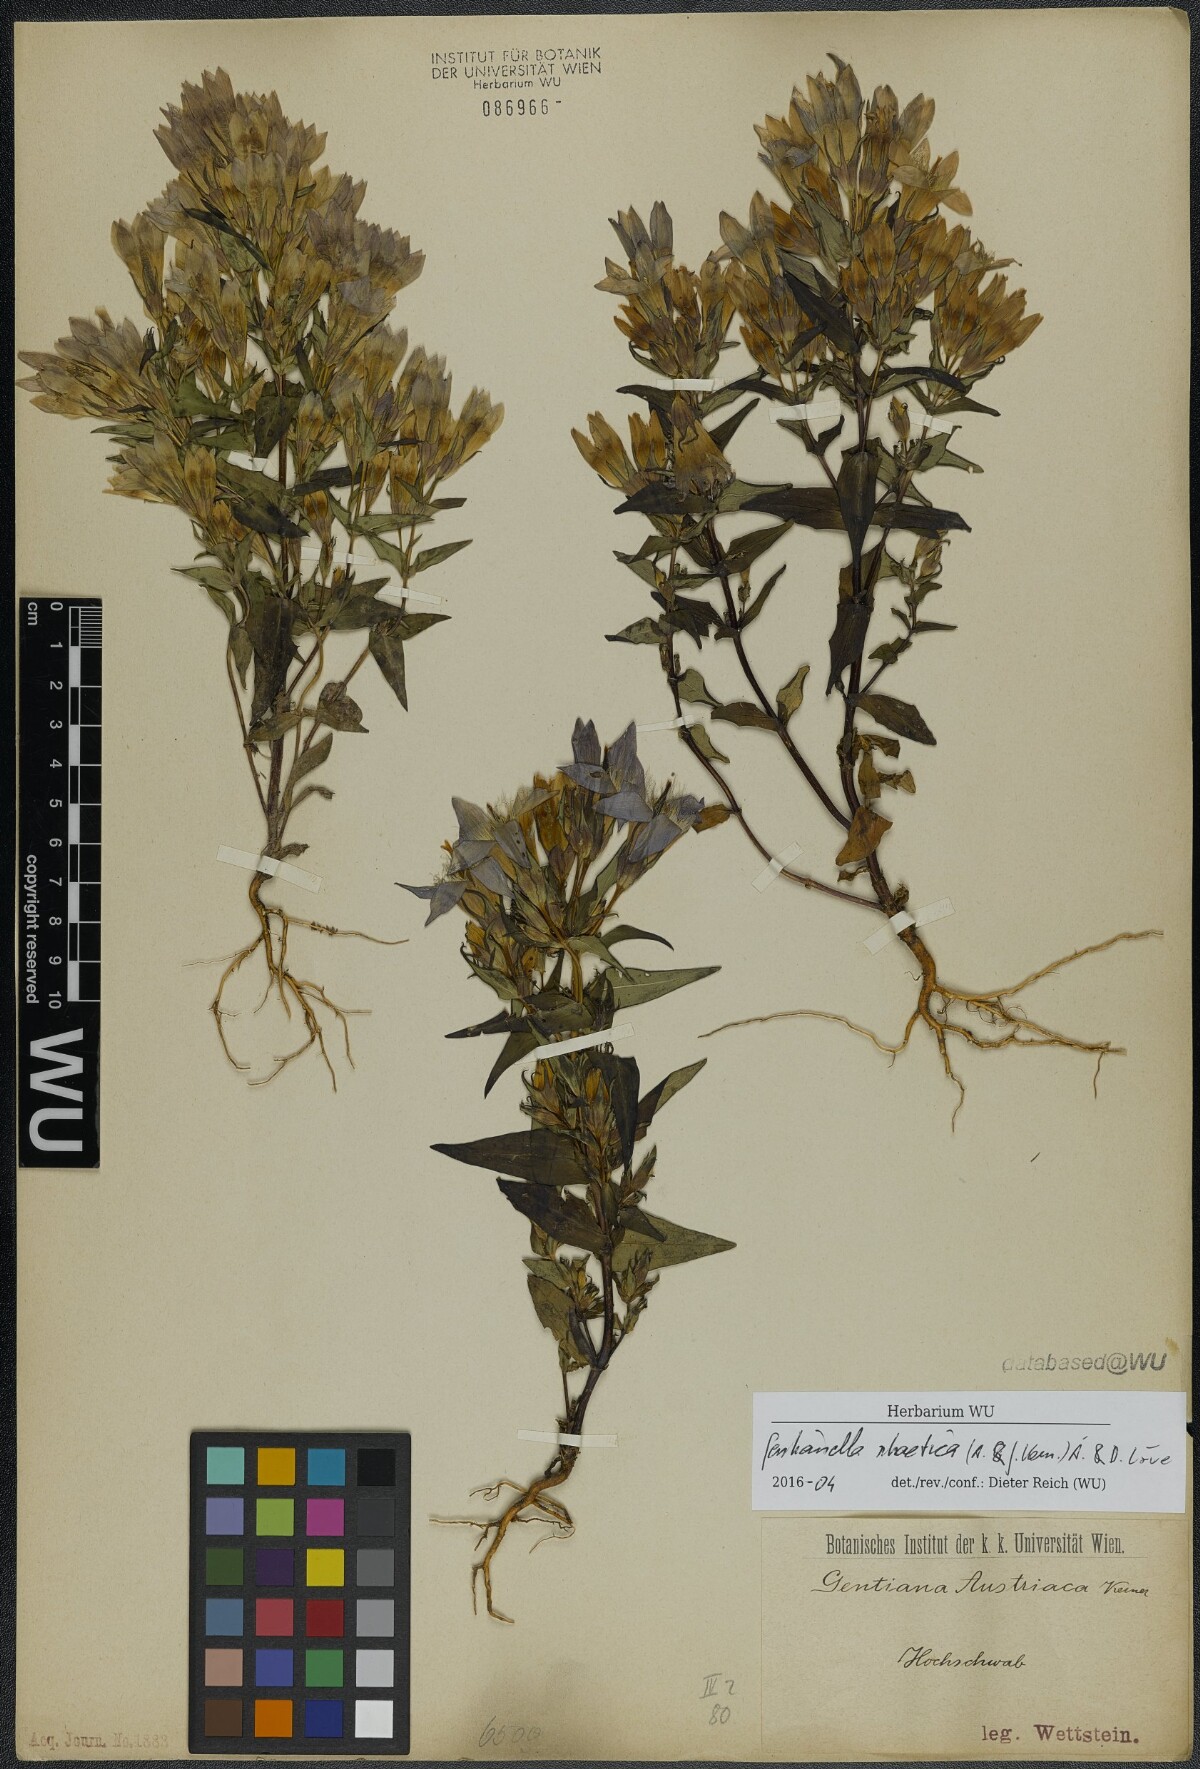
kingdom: Plantae
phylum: Tracheophyta
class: Magnoliopsida
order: Gentianales
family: Gentianaceae
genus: Gentianella
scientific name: Gentianella rhaetica
